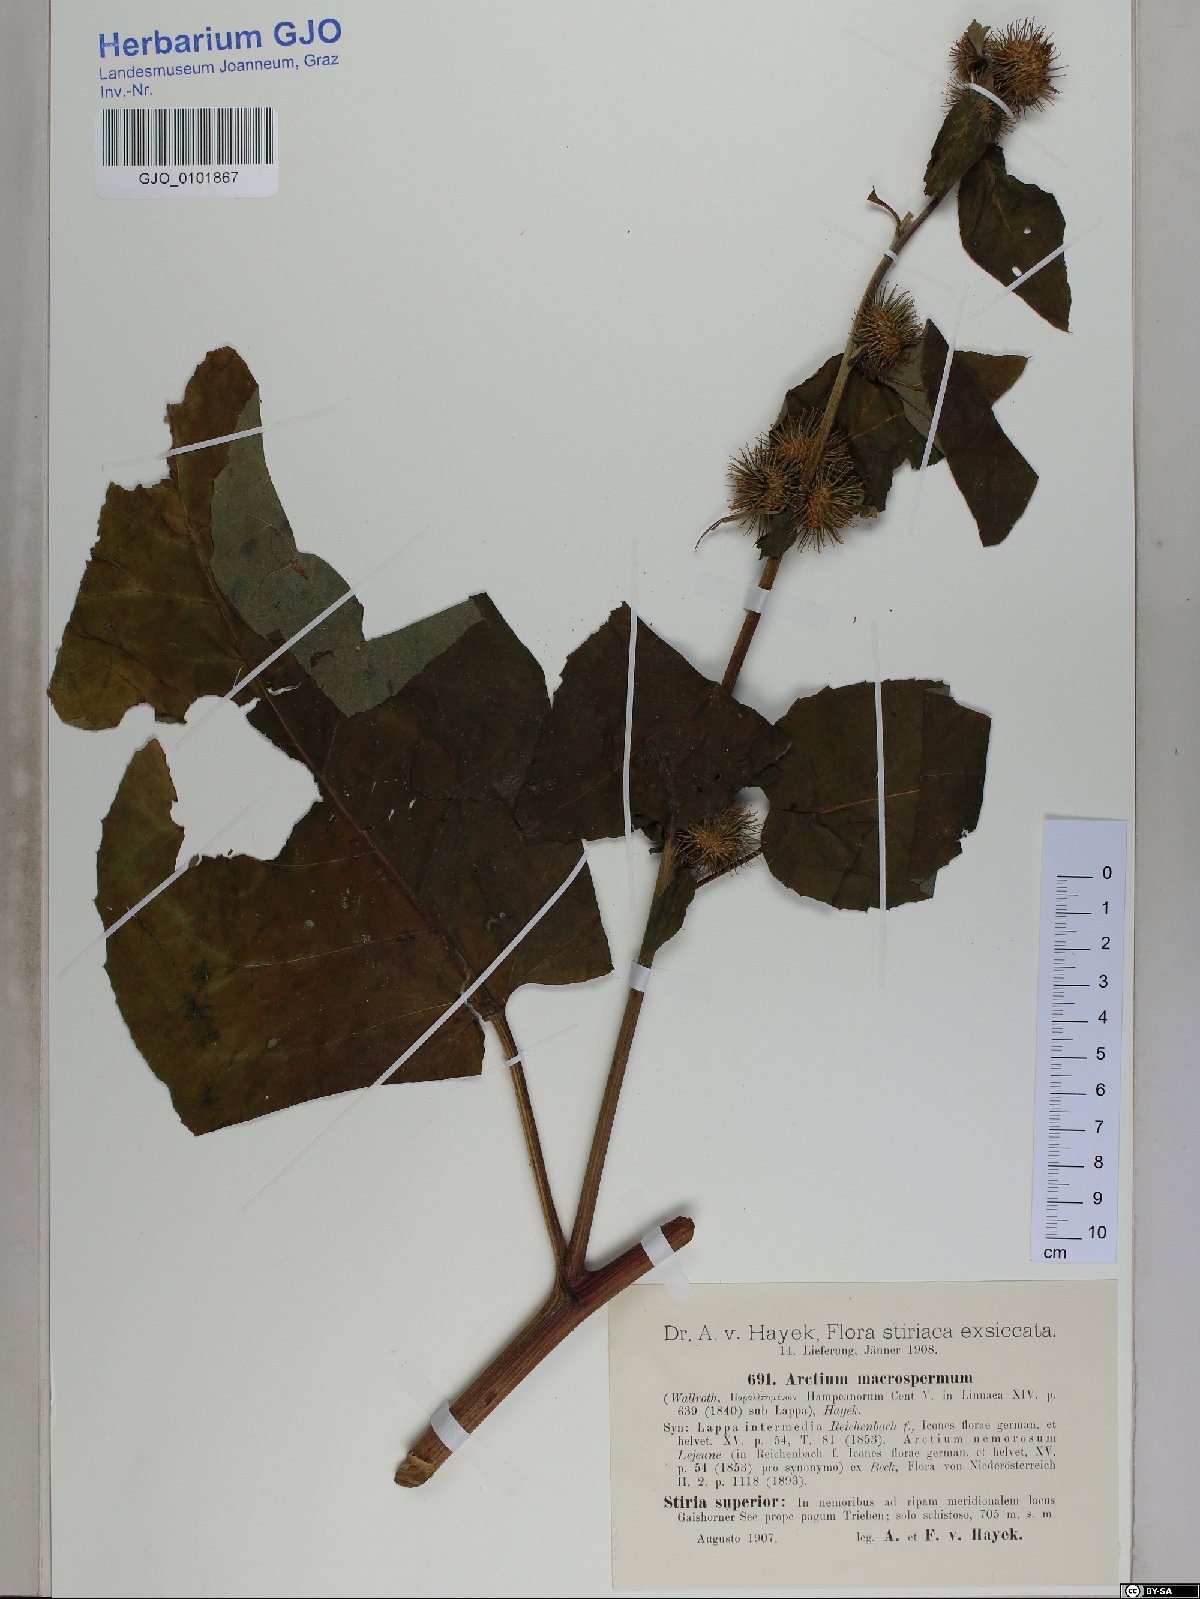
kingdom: Plantae
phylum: Tracheophyta
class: Magnoliopsida
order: Asterales
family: Asteraceae
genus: Arctium
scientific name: Arctium nemorosum
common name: Wood burdock
